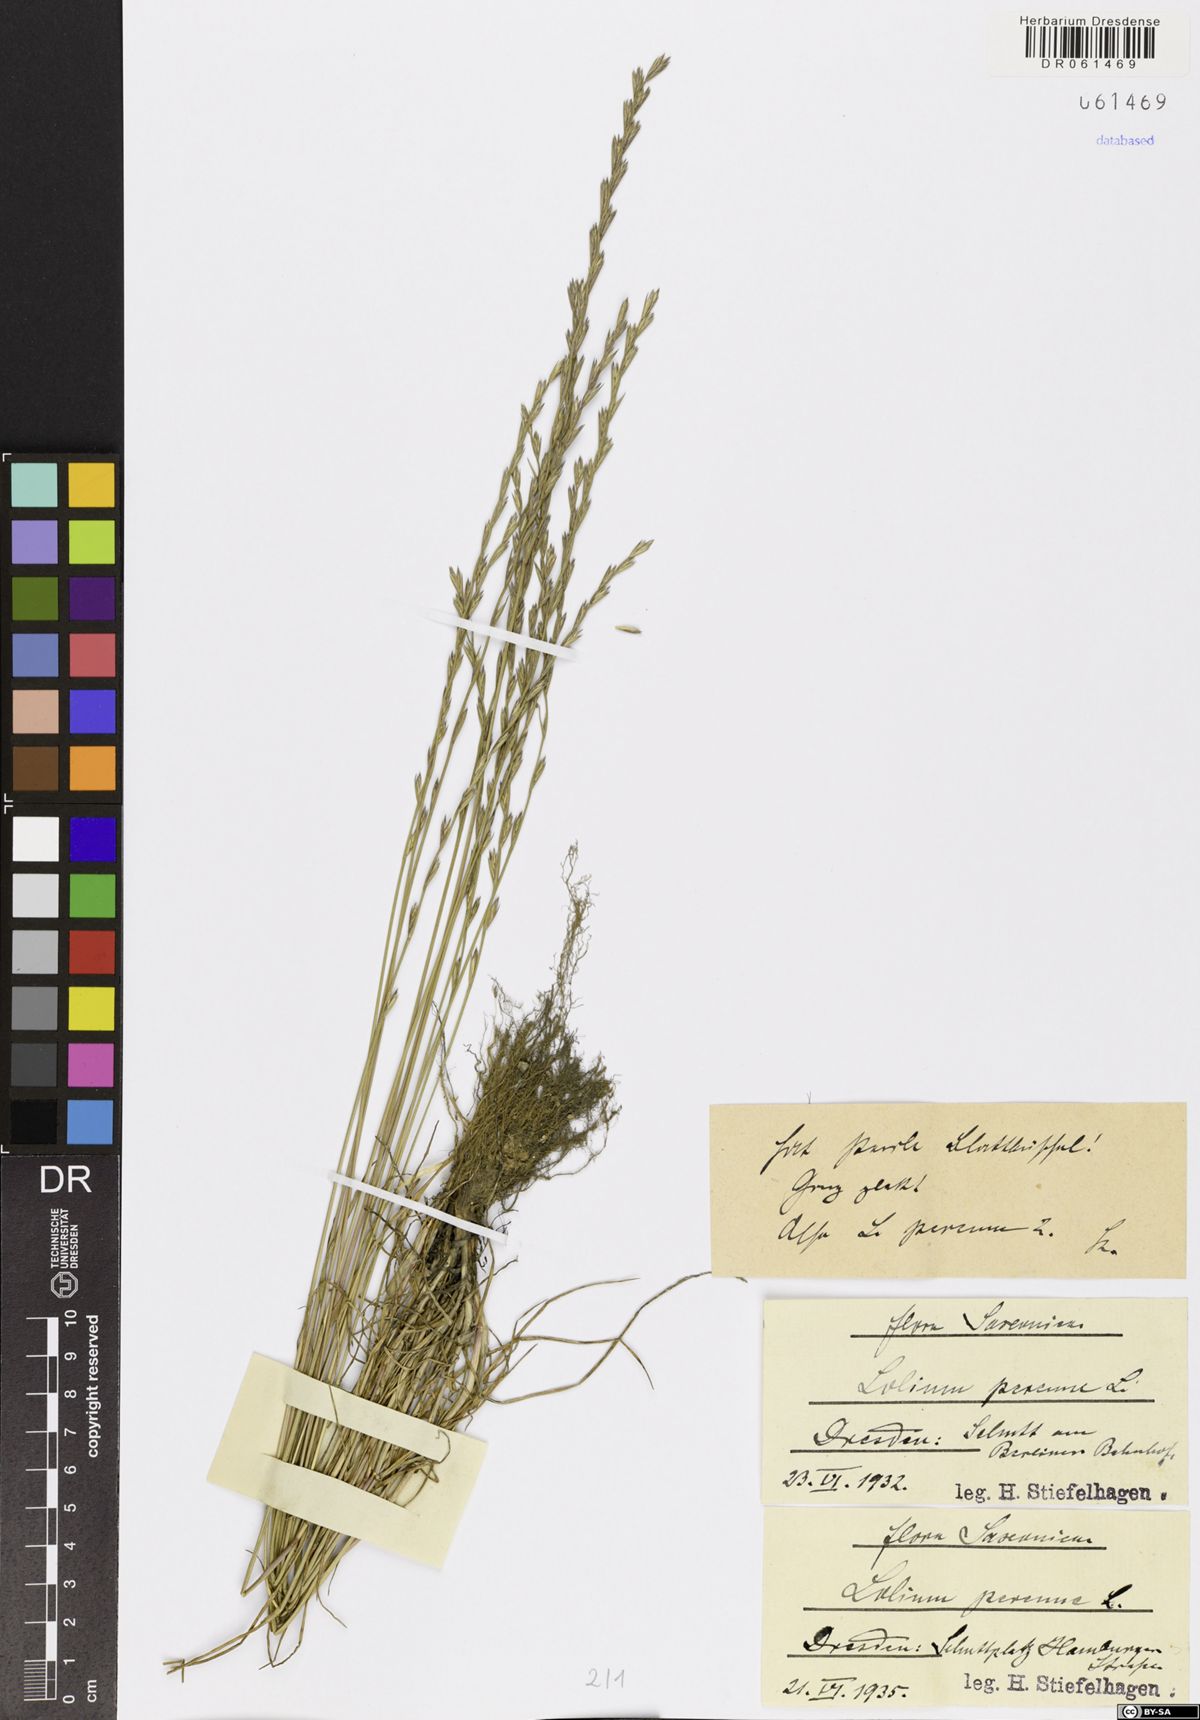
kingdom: Plantae
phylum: Tracheophyta
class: Liliopsida
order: Poales
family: Poaceae
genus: Lolium
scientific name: Lolium perenne
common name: Perennial ryegrass
